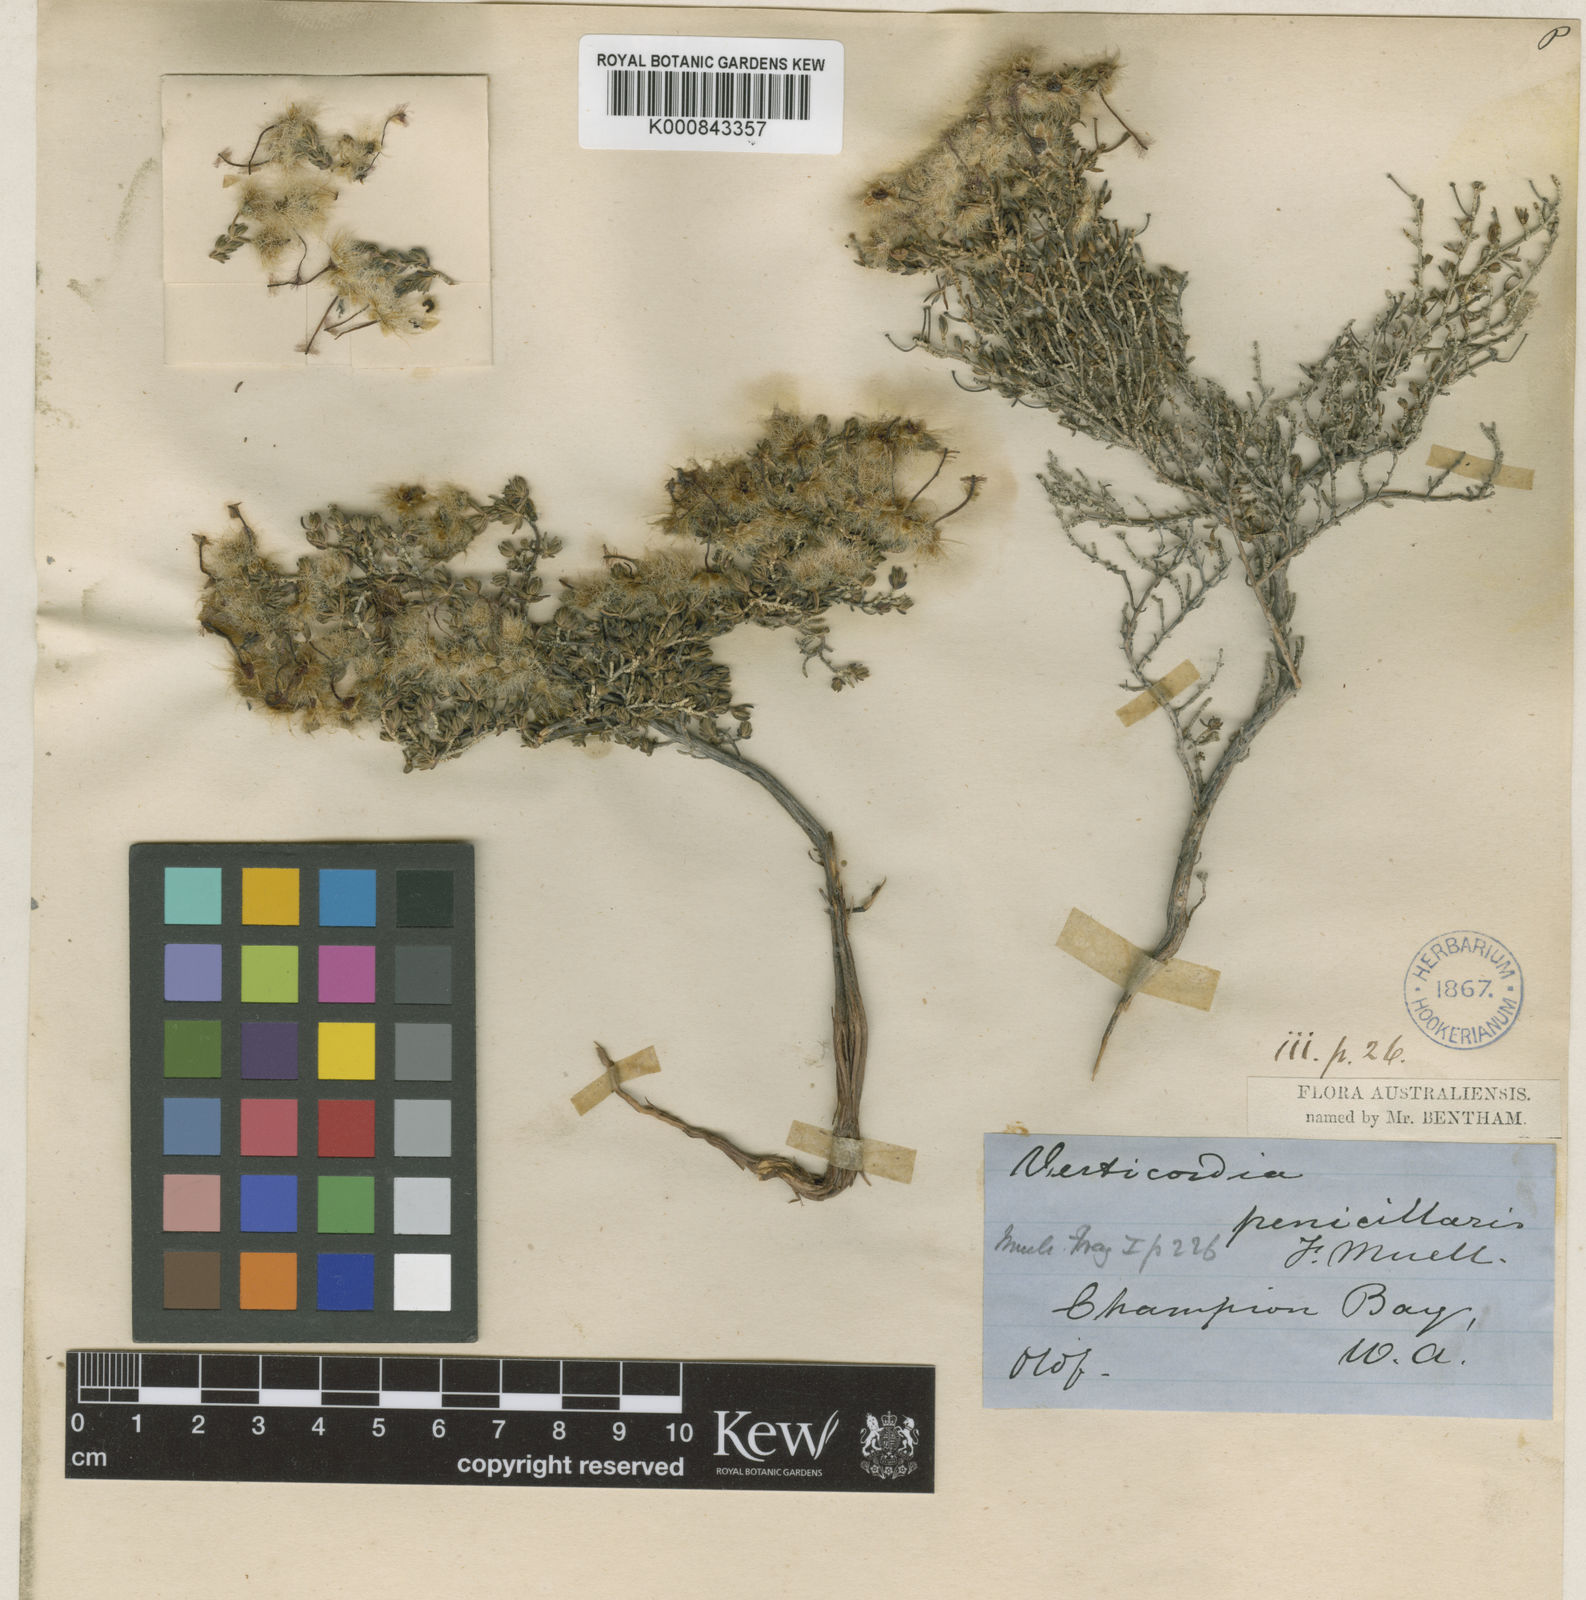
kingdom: Plantae
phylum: Tracheophyta
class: Magnoliopsida
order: Myrtales
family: Myrtaceae
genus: Verticordia
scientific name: Verticordia penicillaris
